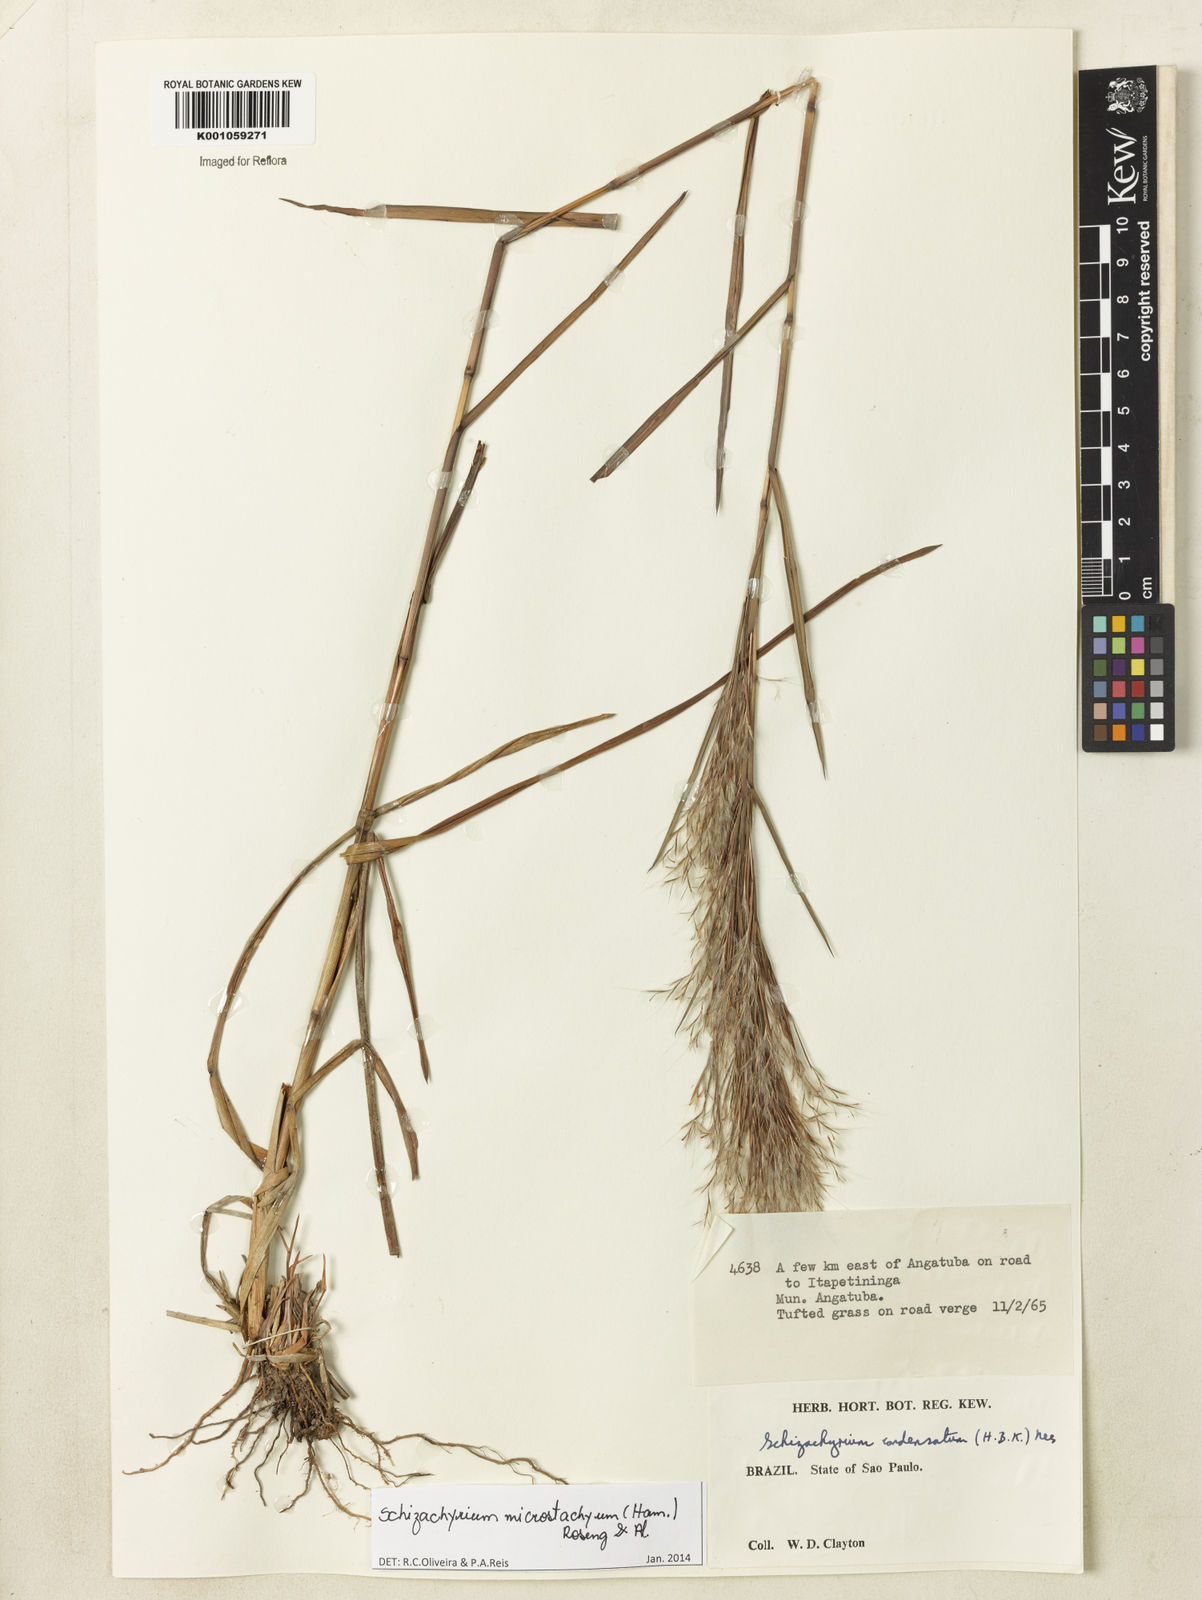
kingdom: Plantae
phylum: Tracheophyta
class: Liliopsida
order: Poales
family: Poaceae
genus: Schizachyrium
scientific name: Schizachyrium
